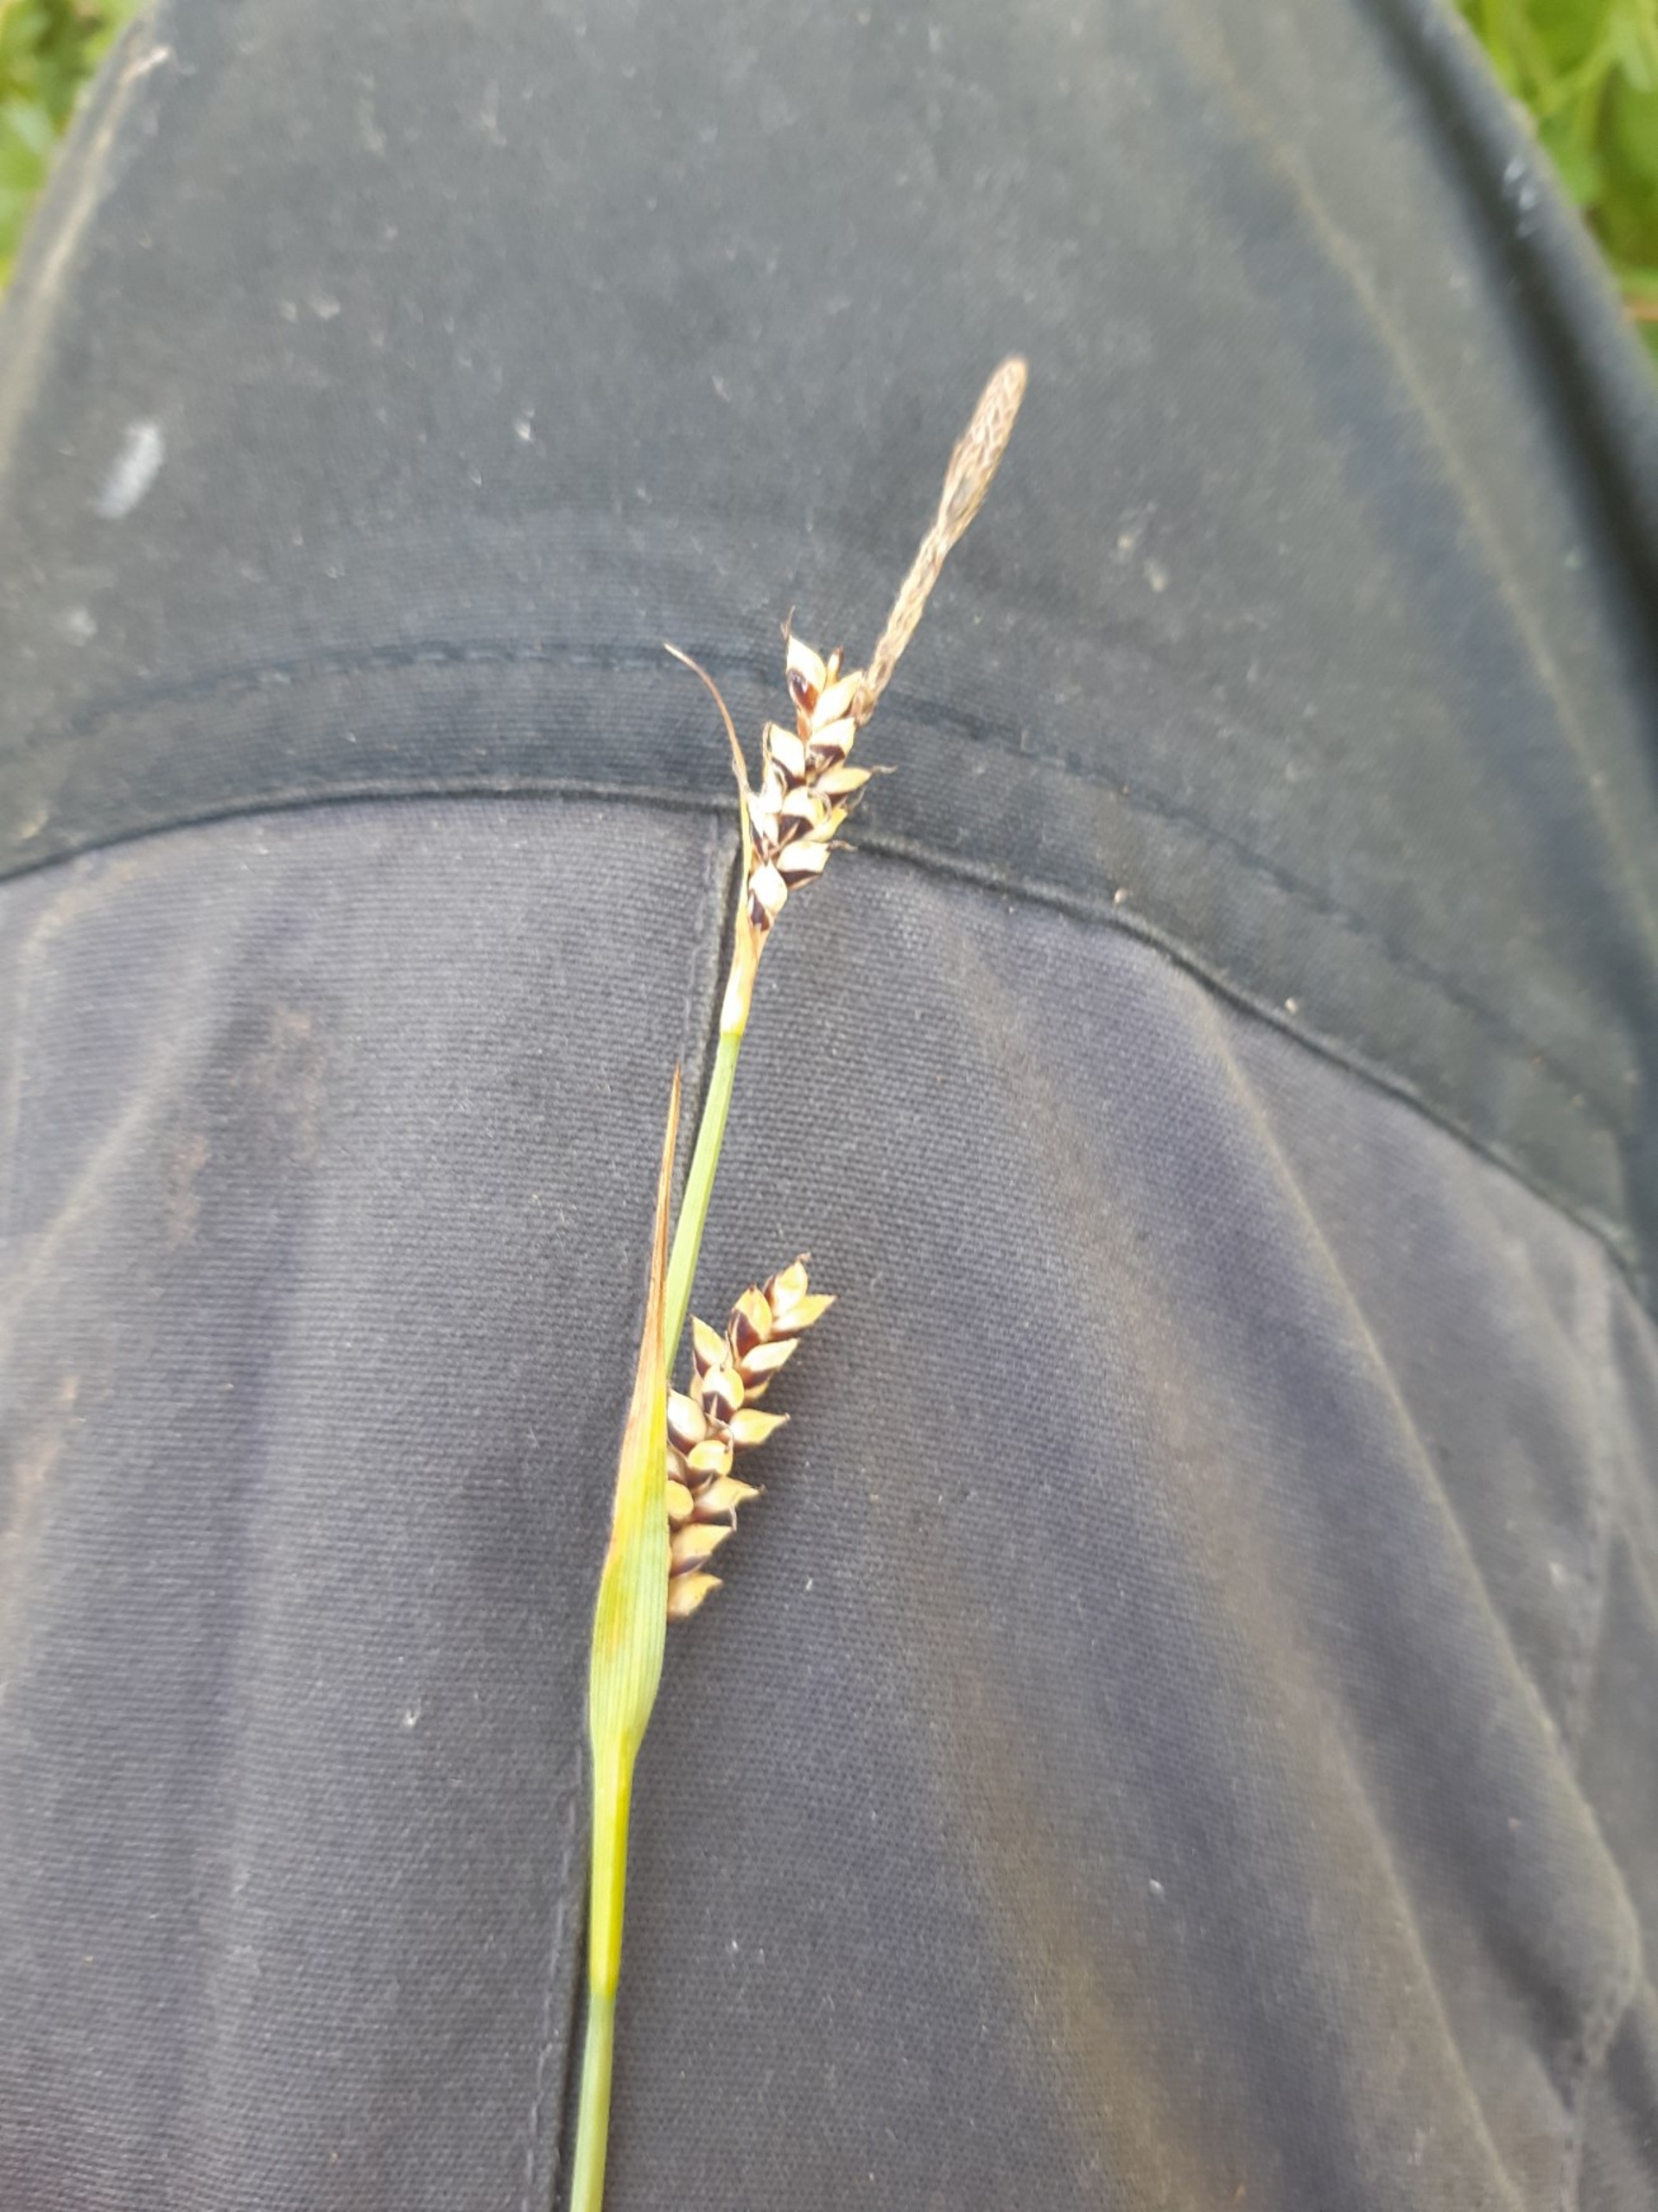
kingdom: Plantae
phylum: Tracheophyta
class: Liliopsida
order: Poales
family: Cyperaceae
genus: Carex
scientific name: Carex panicea
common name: Hirse-star
